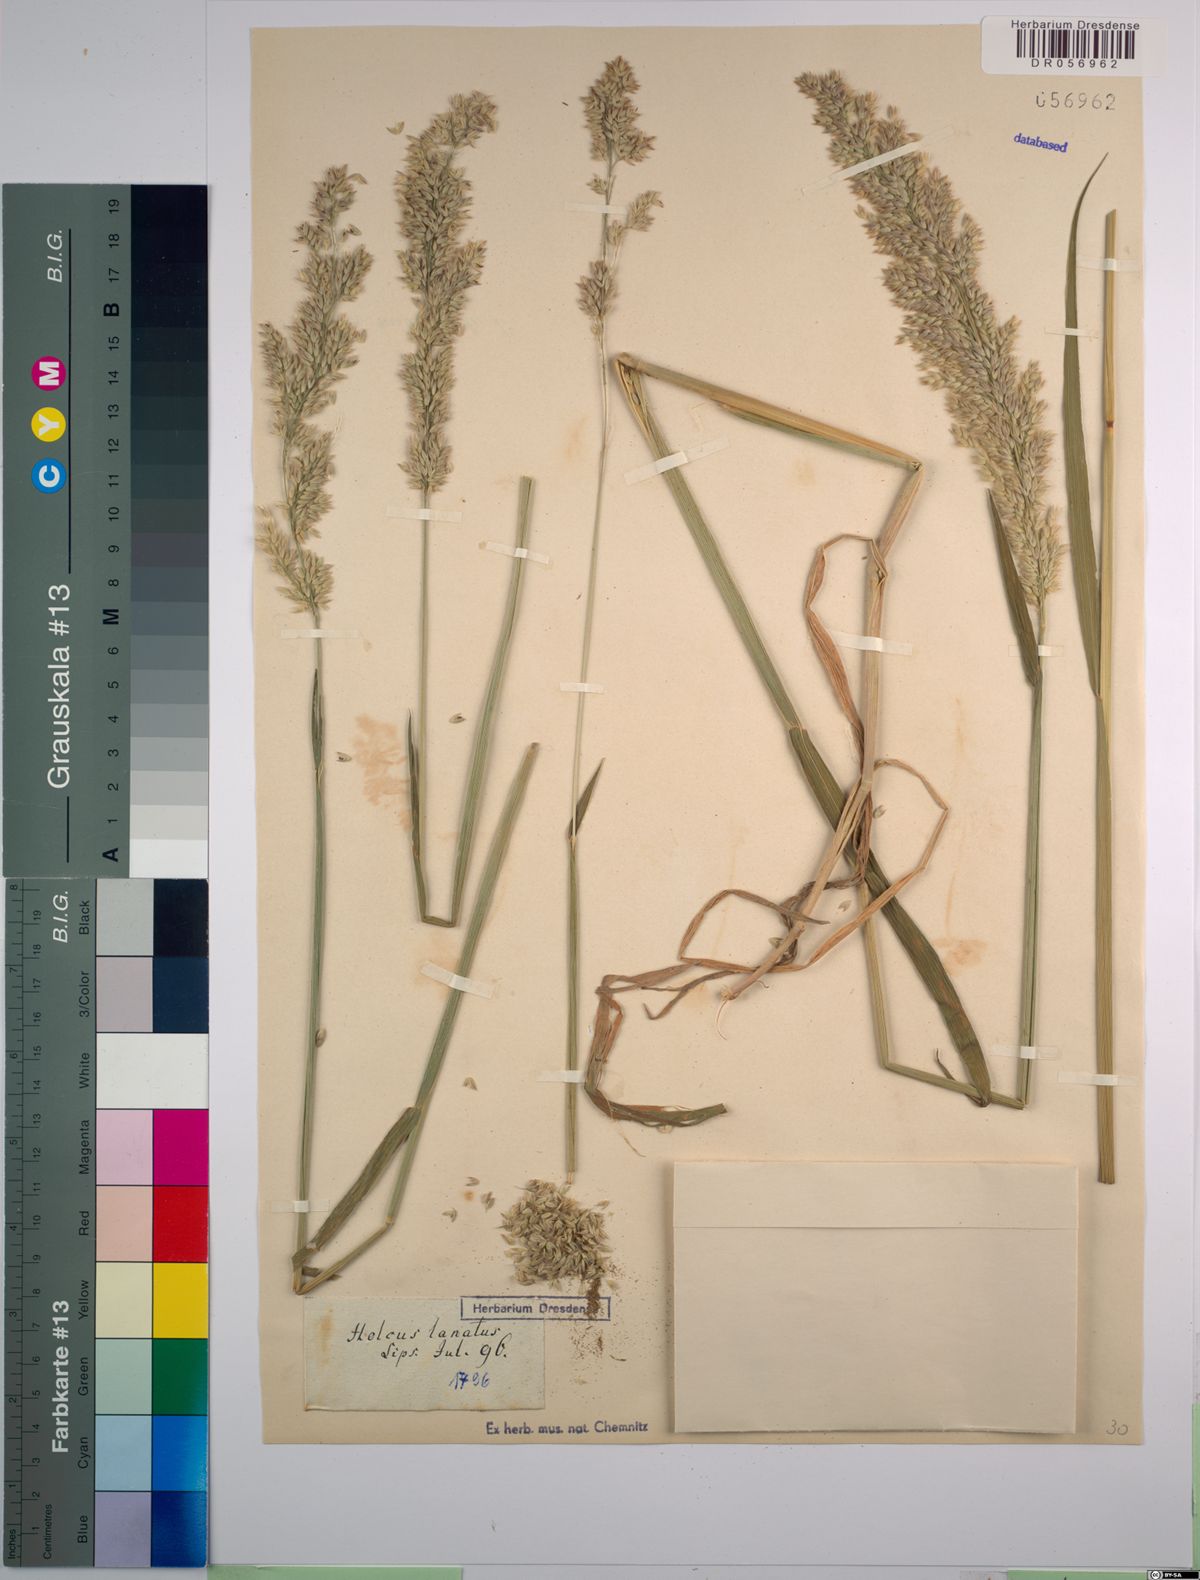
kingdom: Plantae
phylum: Tracheophyta
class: Liliopsida
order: Poales
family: Poaceae
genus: Holcus
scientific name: Holcus mollis
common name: Creeping velvetgrass
